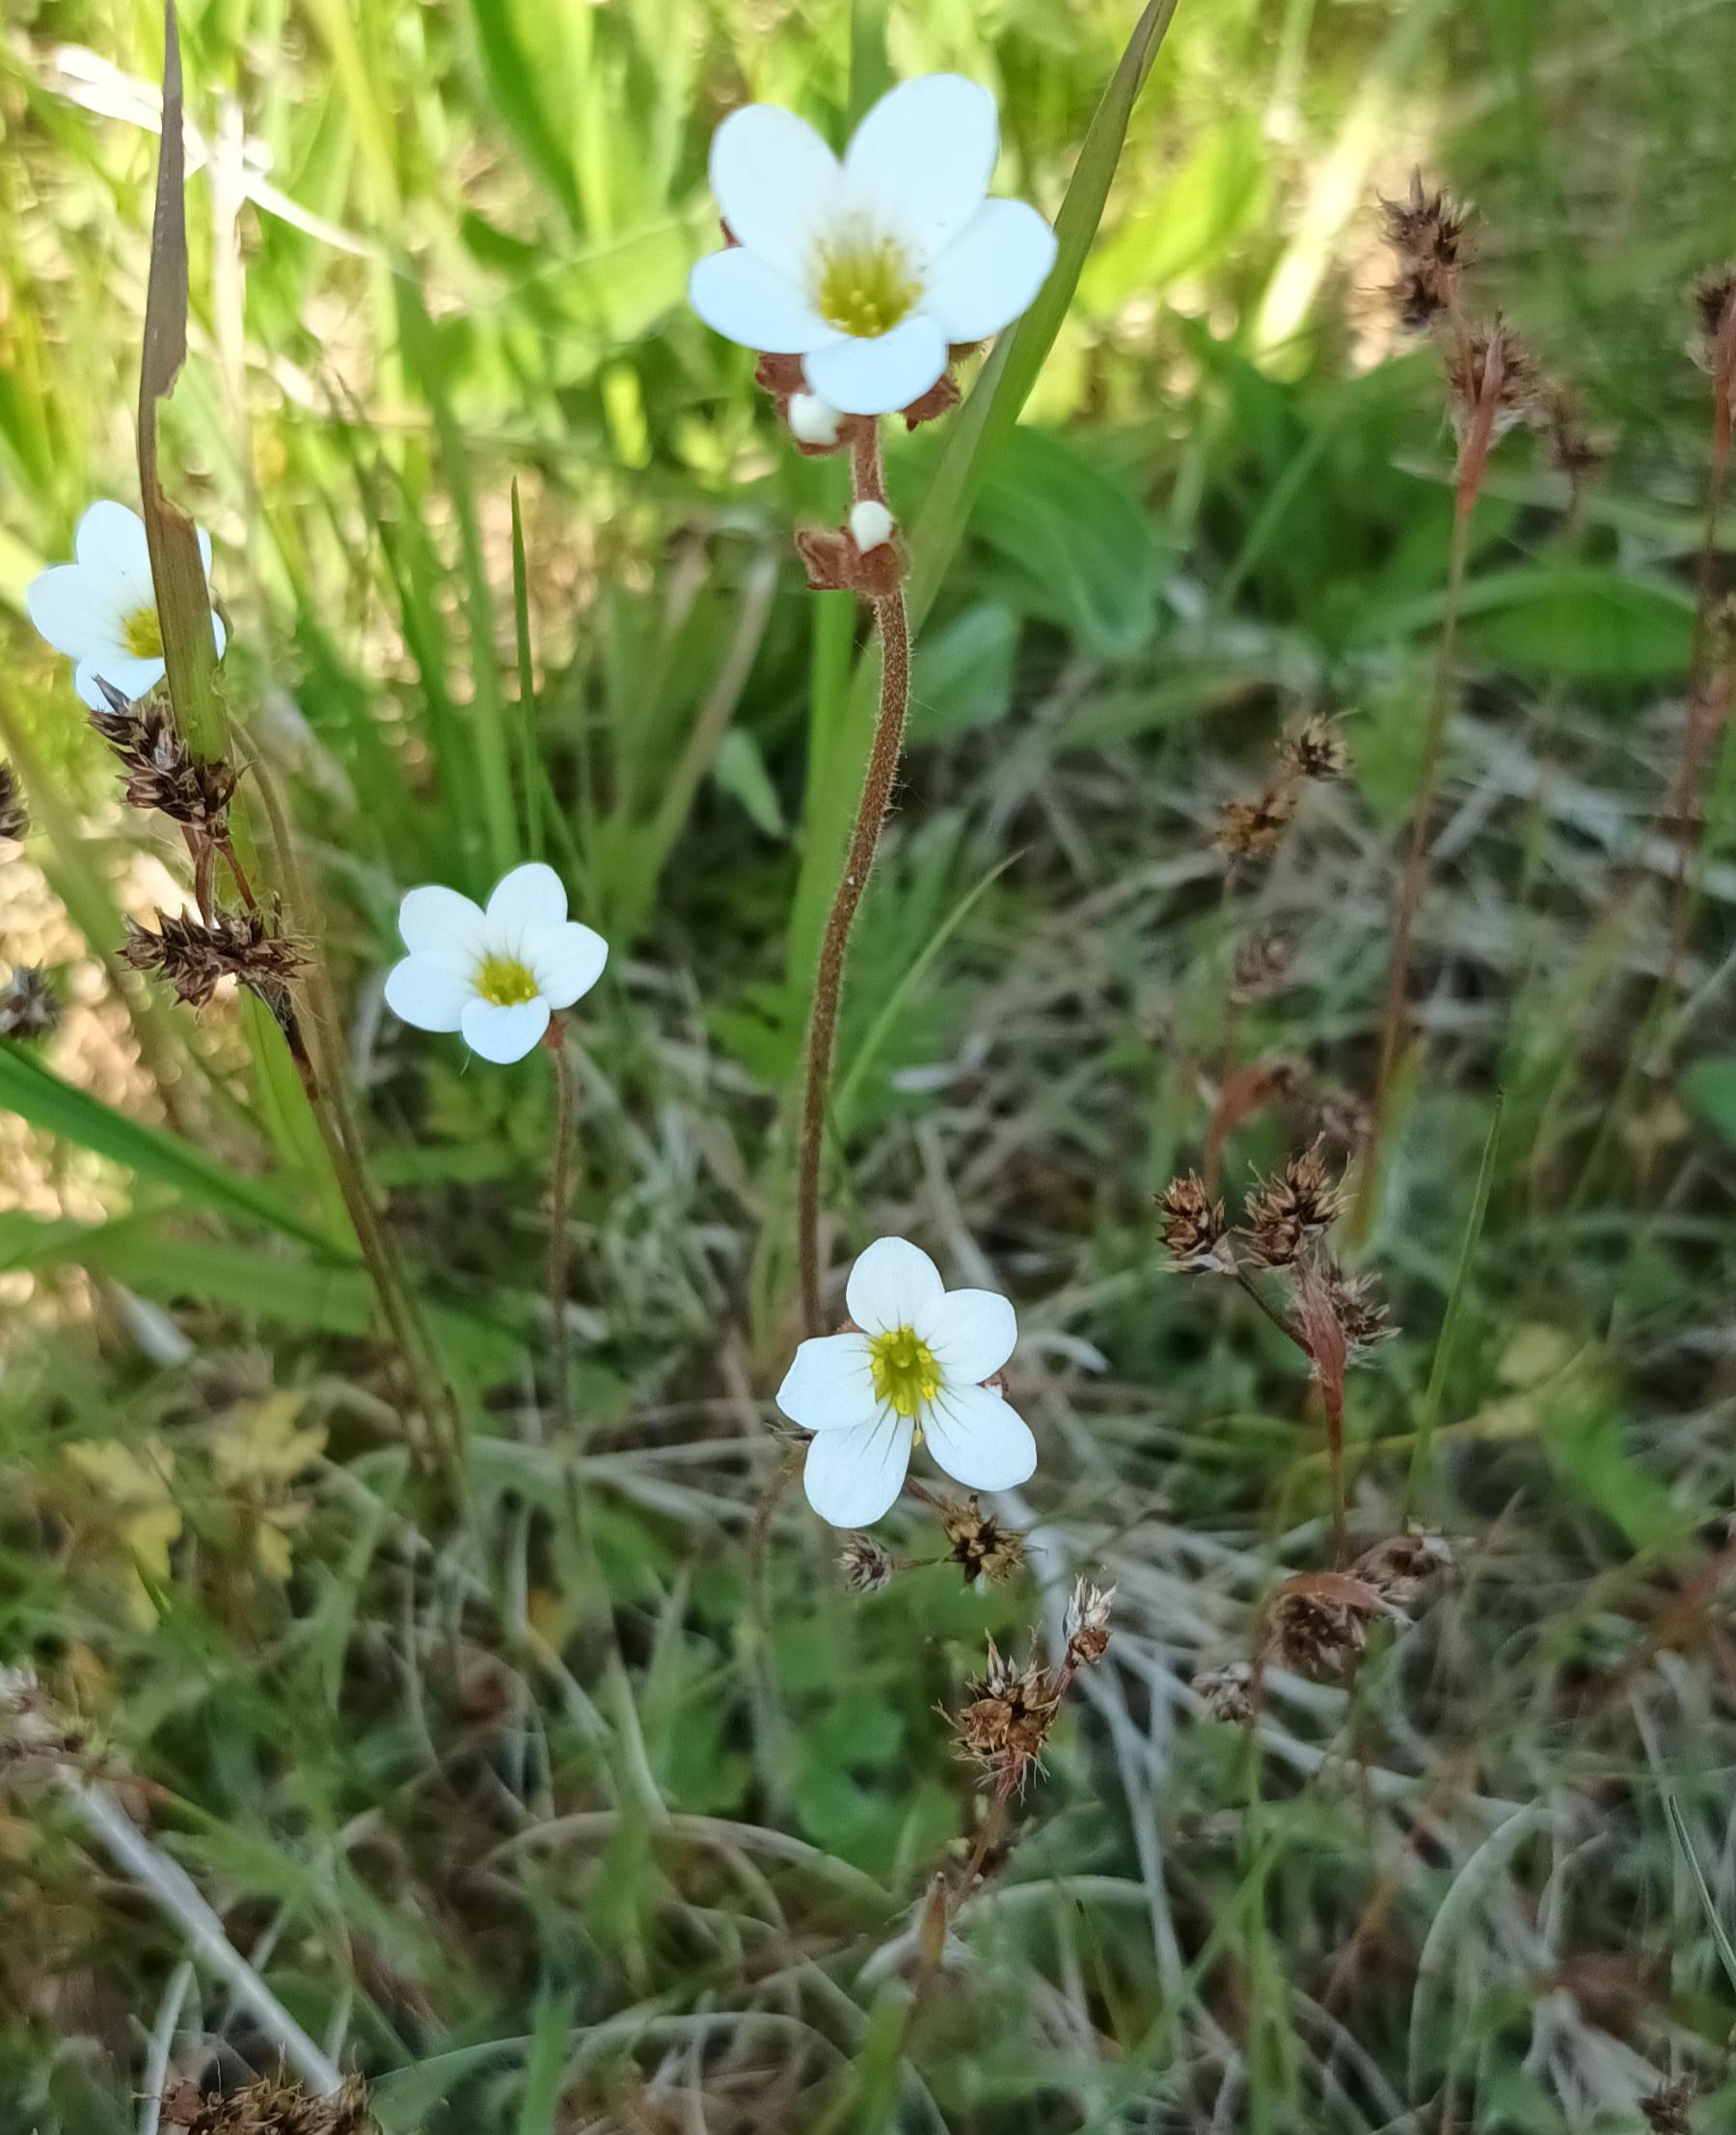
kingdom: Plantae
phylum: Tracheophyta
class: Magnoliopsida
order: Saxifragales
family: Saxifragaceae
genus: Saxifraga
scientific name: Saxifraga granulata
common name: Kornet stenbræk
